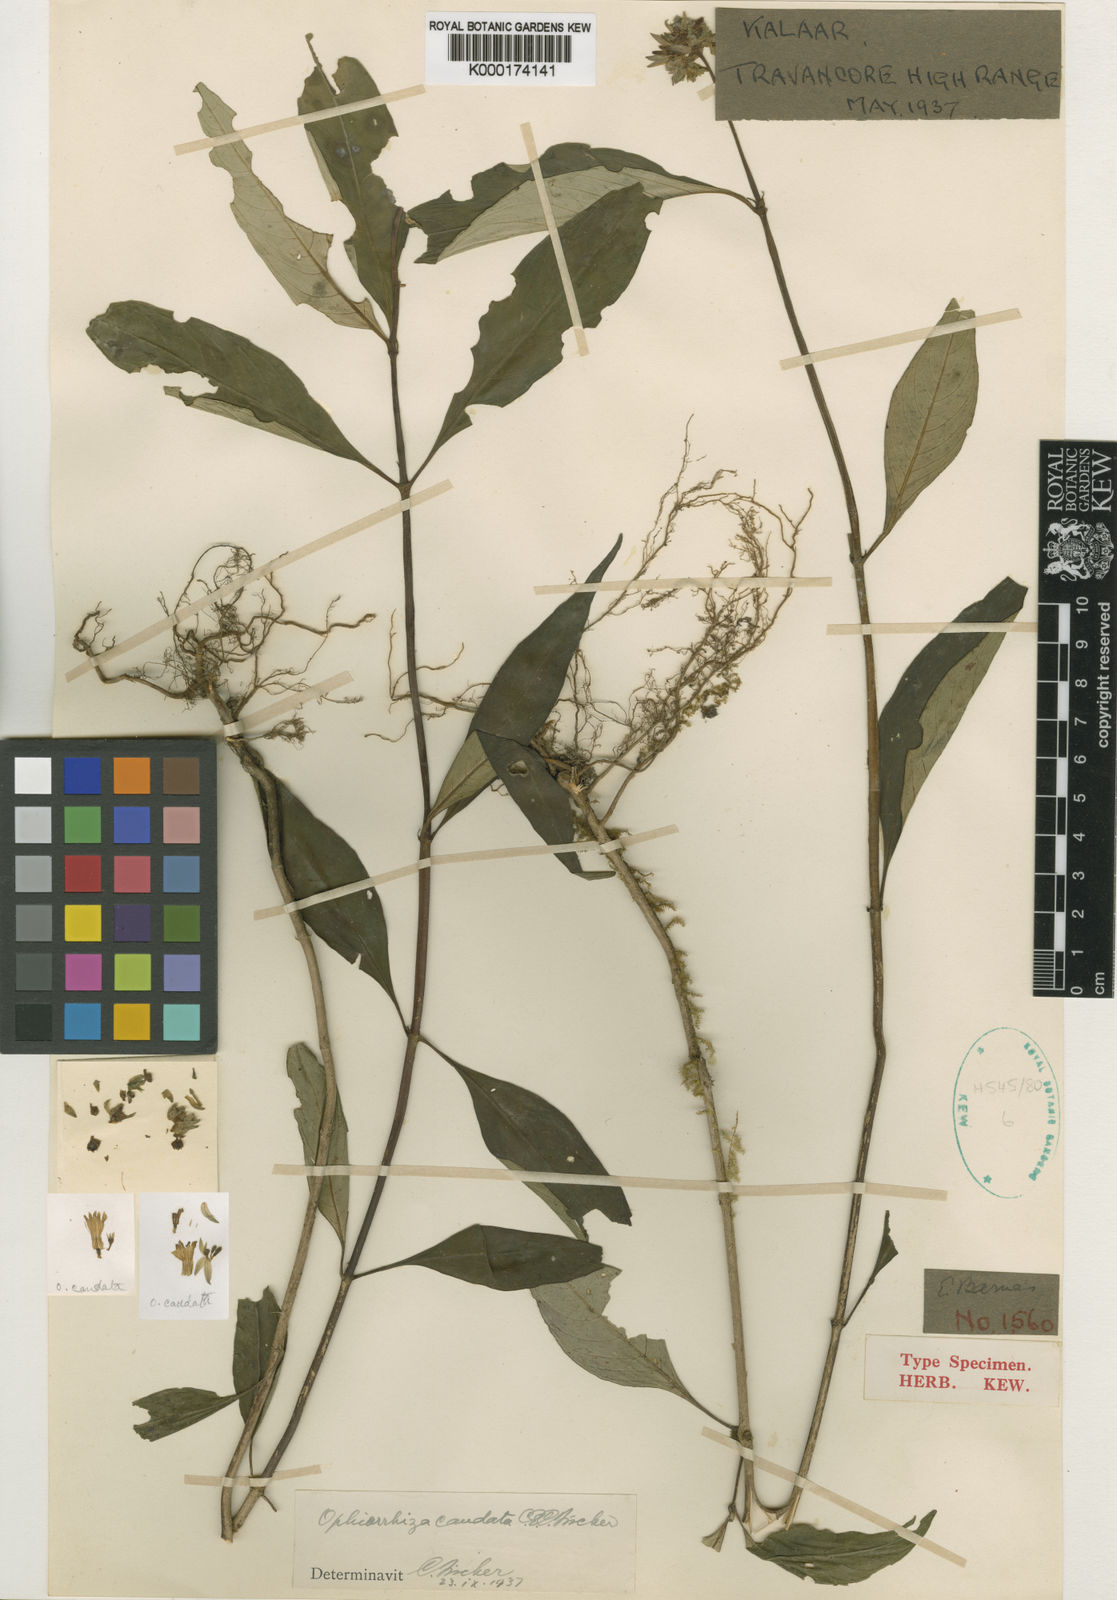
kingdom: Plantae
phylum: Tracheophyta
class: Magnoliopsida
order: Gentianales
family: Rubiaceae
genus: Ophiorrhiza
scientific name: Ophiorrhiza caudata
